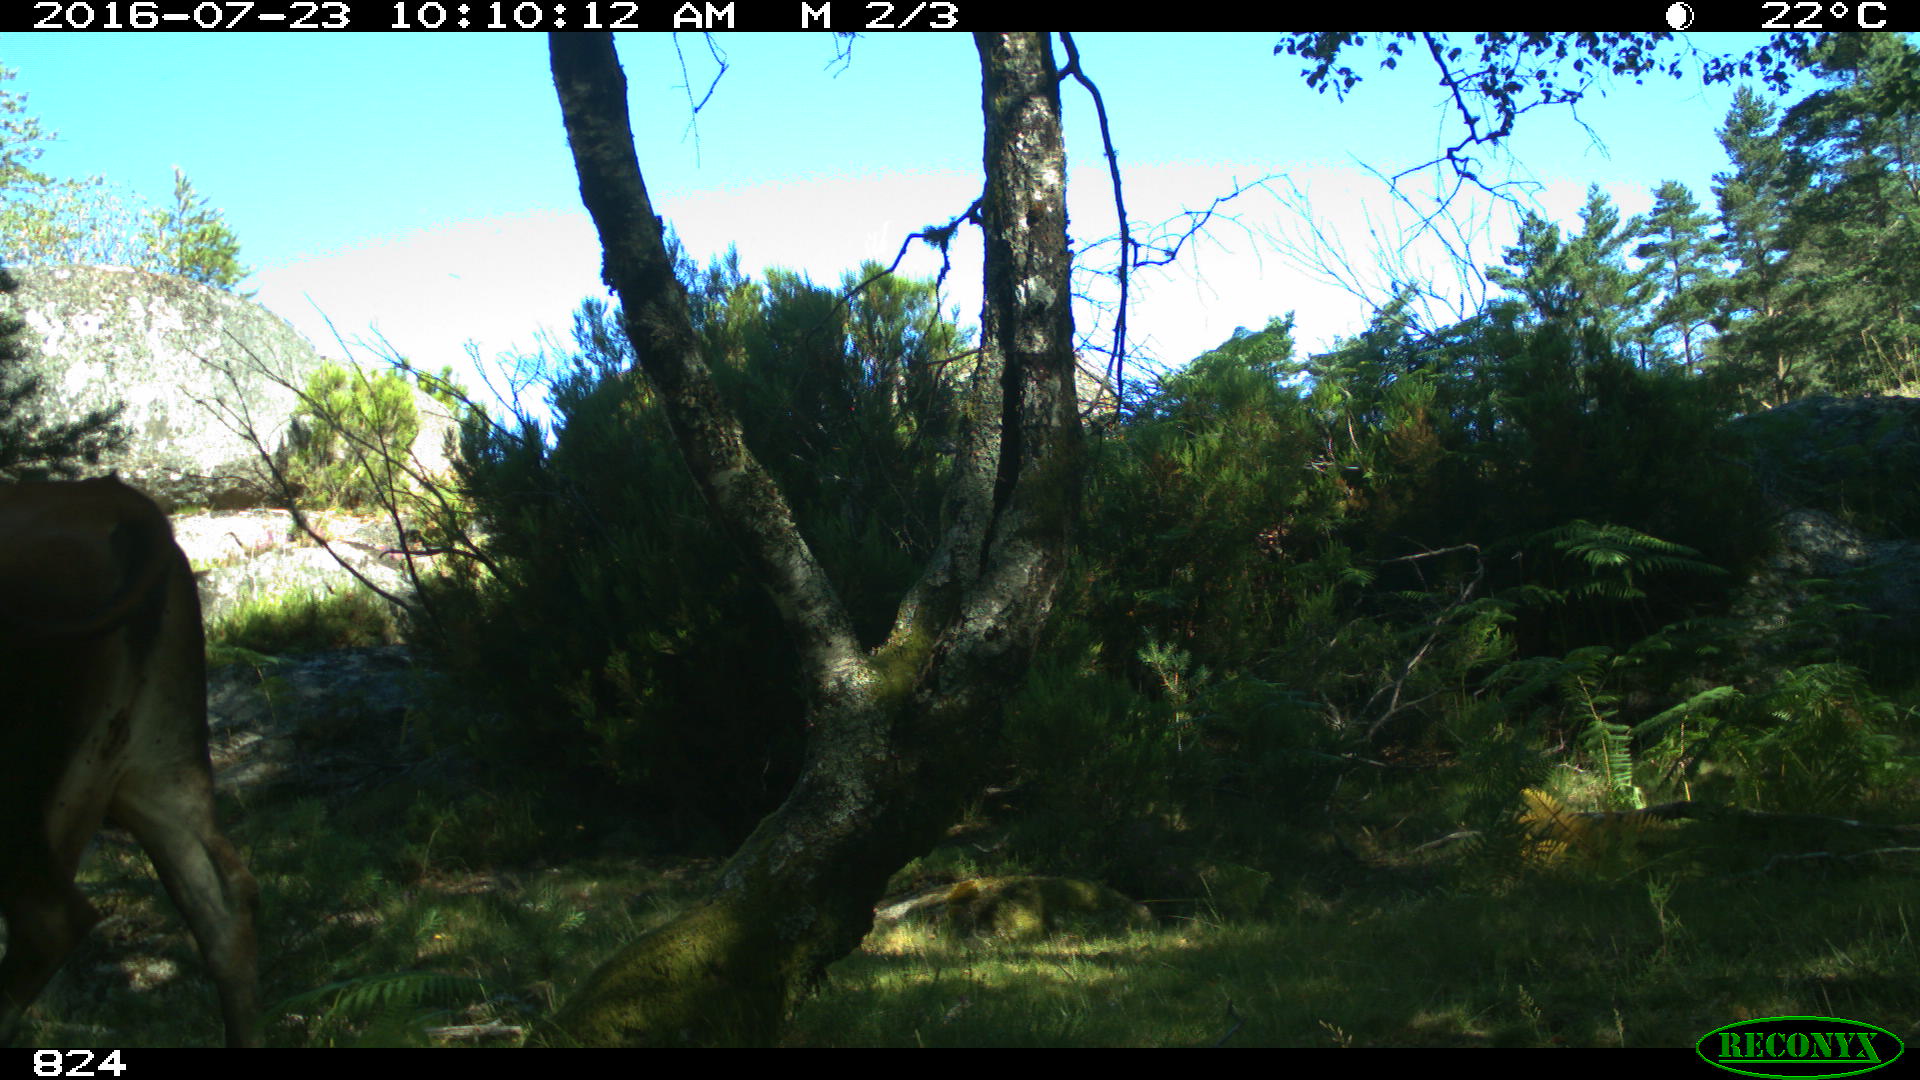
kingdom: Animalia
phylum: Chordata
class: Mammalia
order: Artiodactyla
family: Bovidae
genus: Bos
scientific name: Bos taurus
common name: Domesticated cattle
